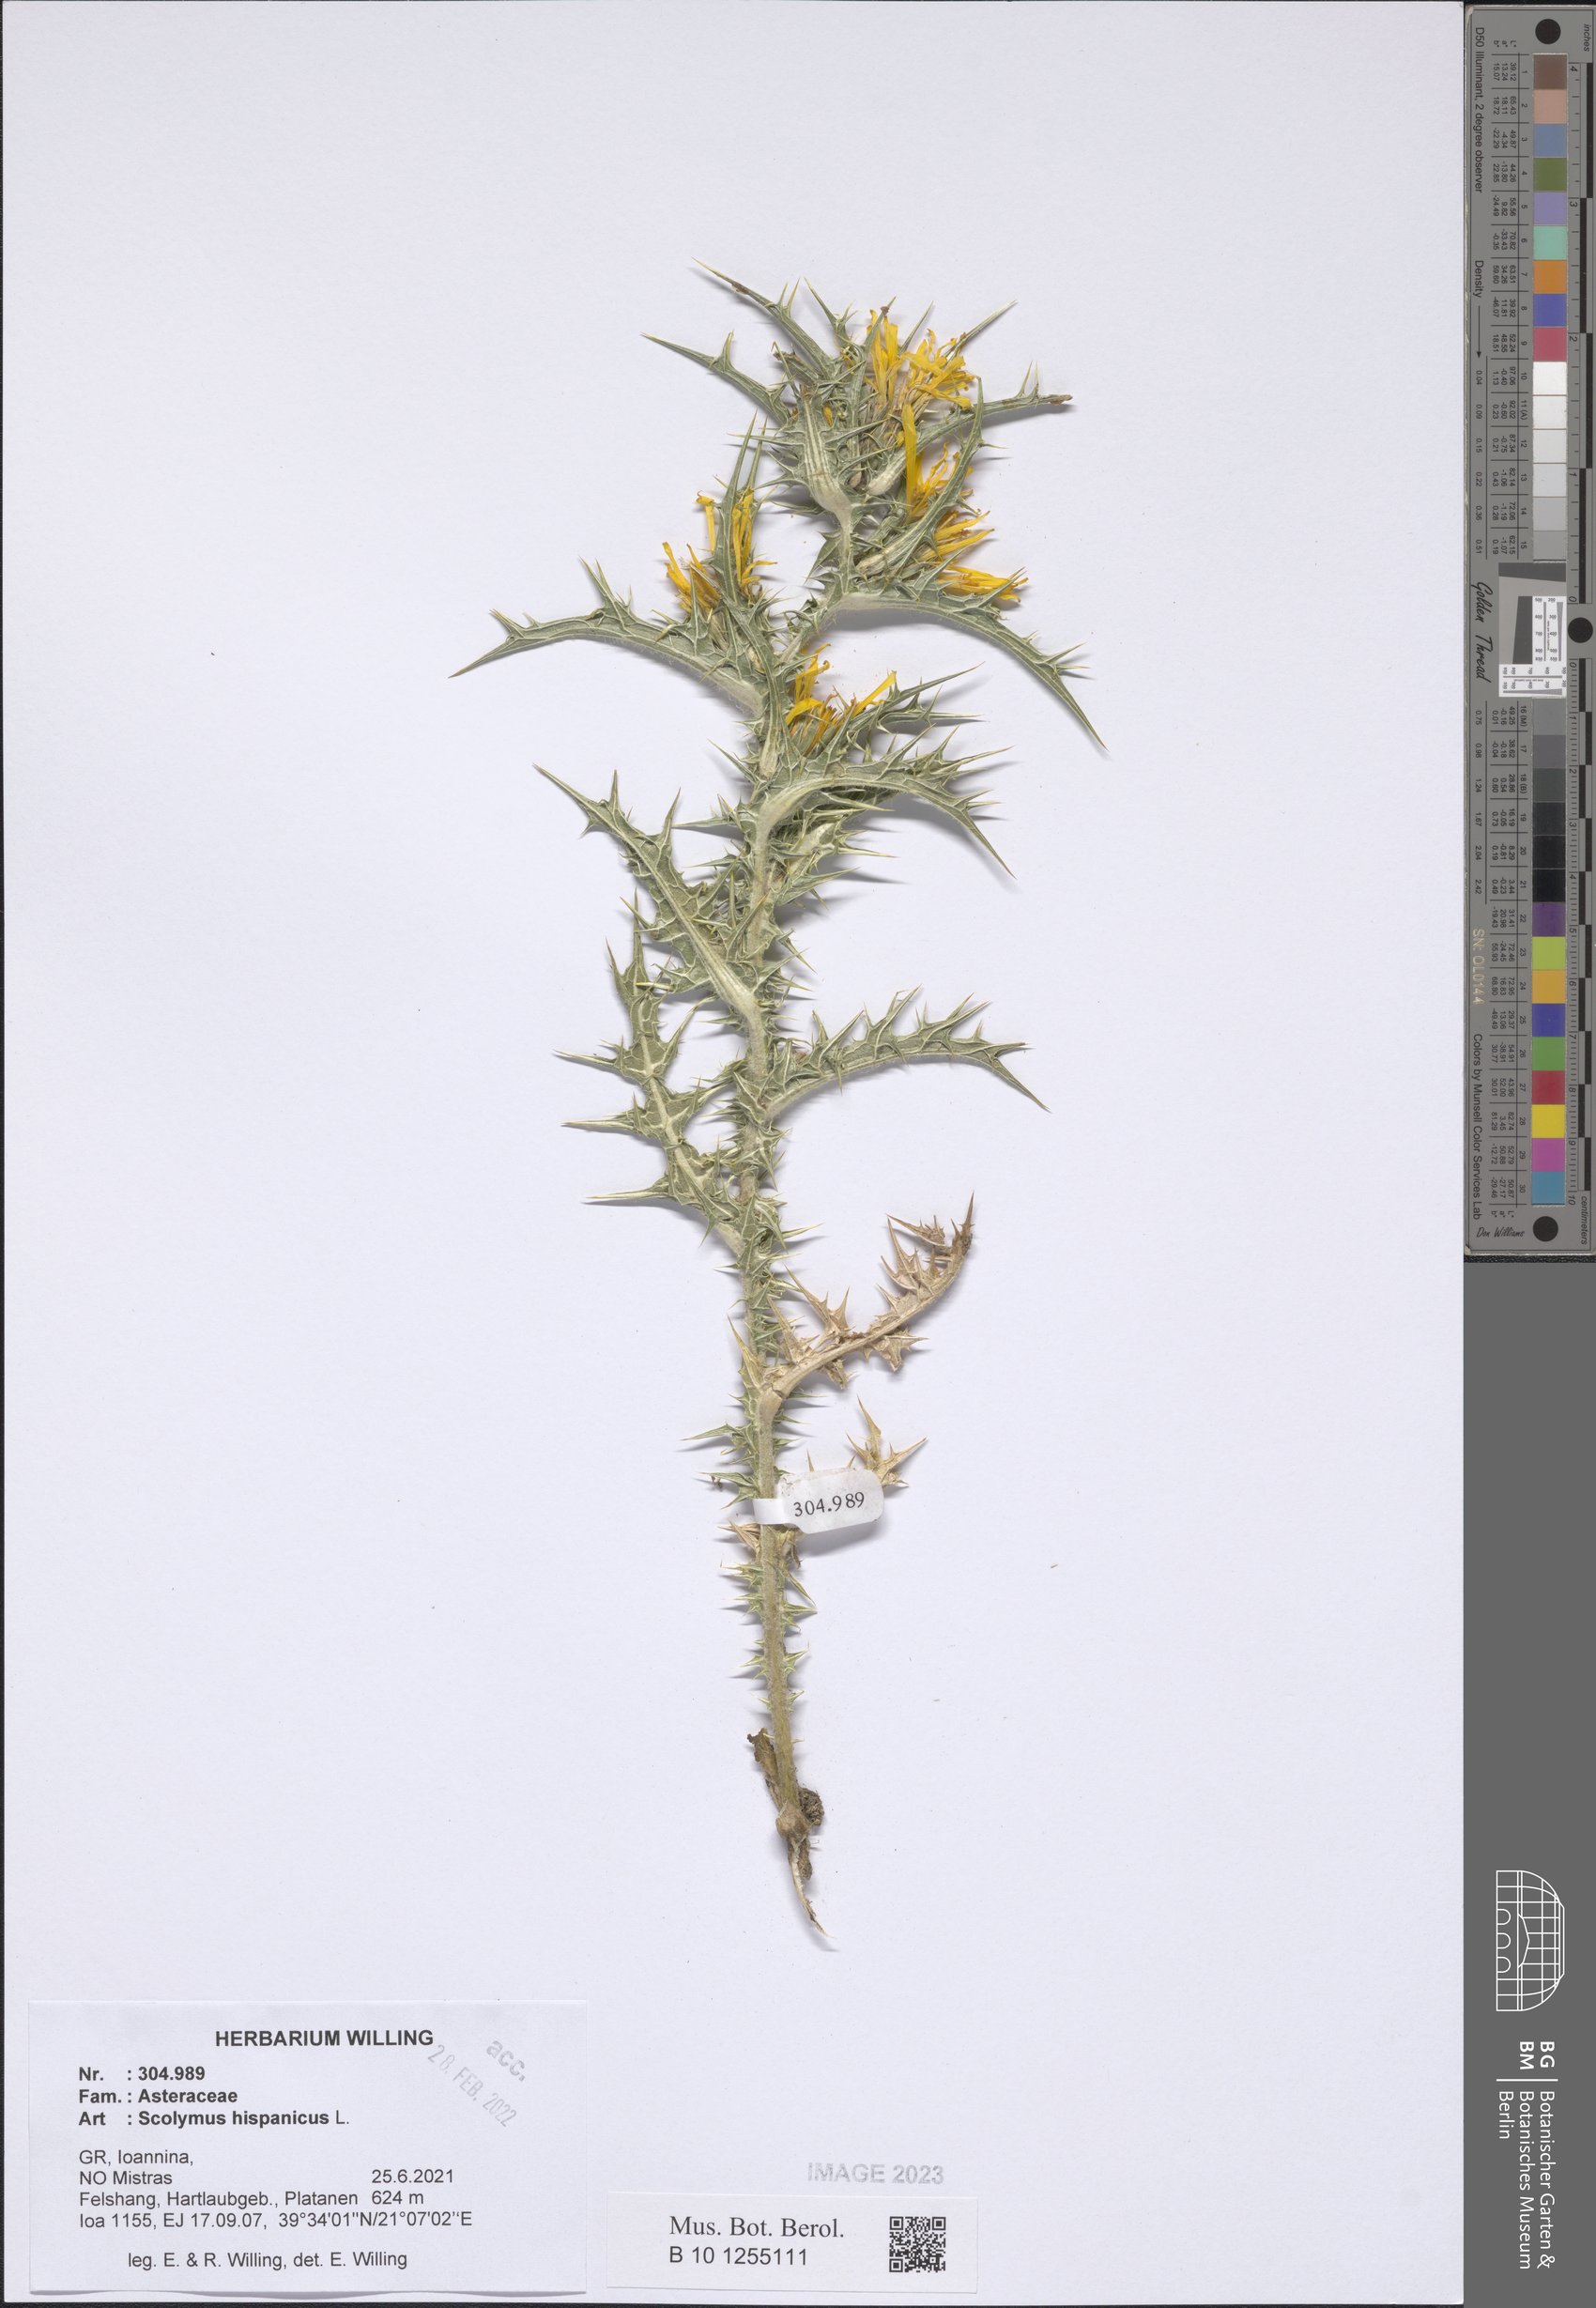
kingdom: Plantae
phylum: Tracheophyta
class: Magnoliopsida
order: Asterales
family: Asteraceae
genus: Scolymus
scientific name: Scolymus hispanicus
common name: Golden thistle
